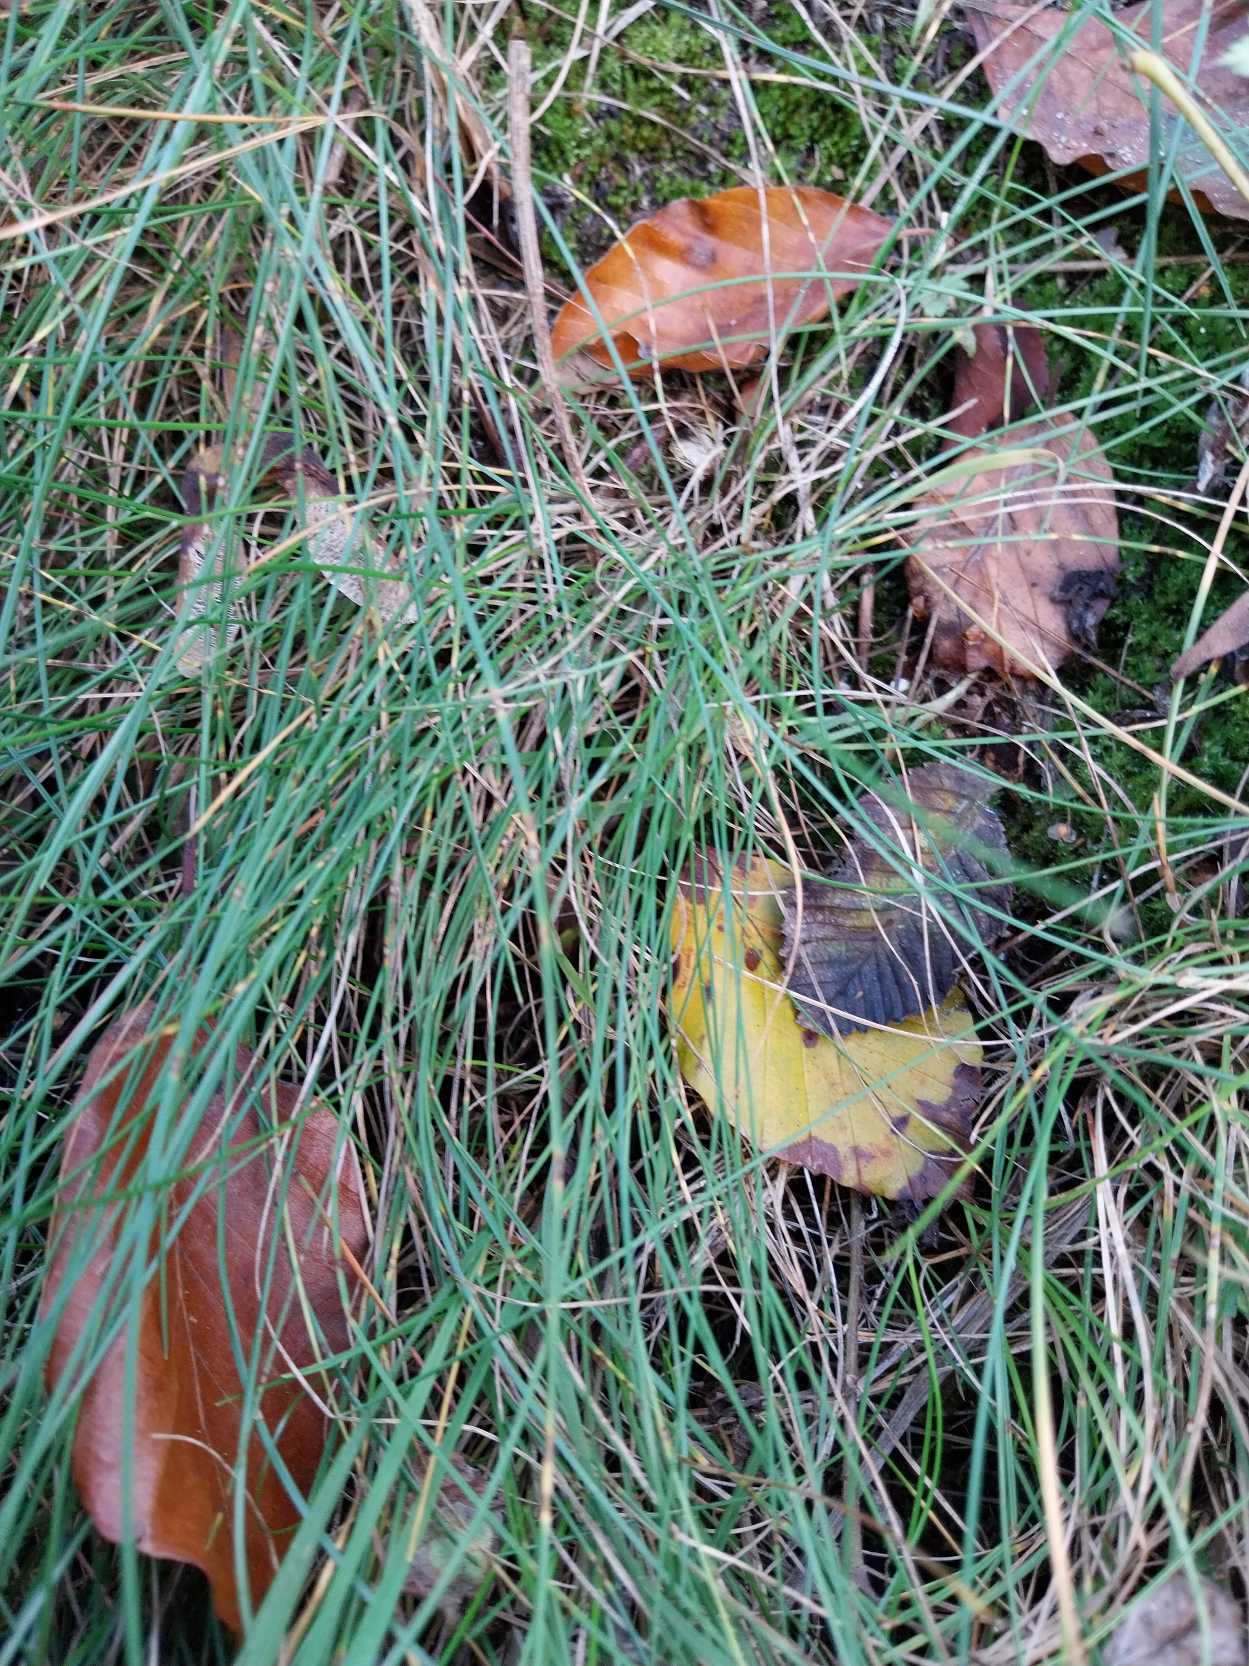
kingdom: Plantae
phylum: Tracheophyta
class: Liliopsida
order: Poales
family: Poaceae
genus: Festuca
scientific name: Festuca rubra
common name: Rød svingel
